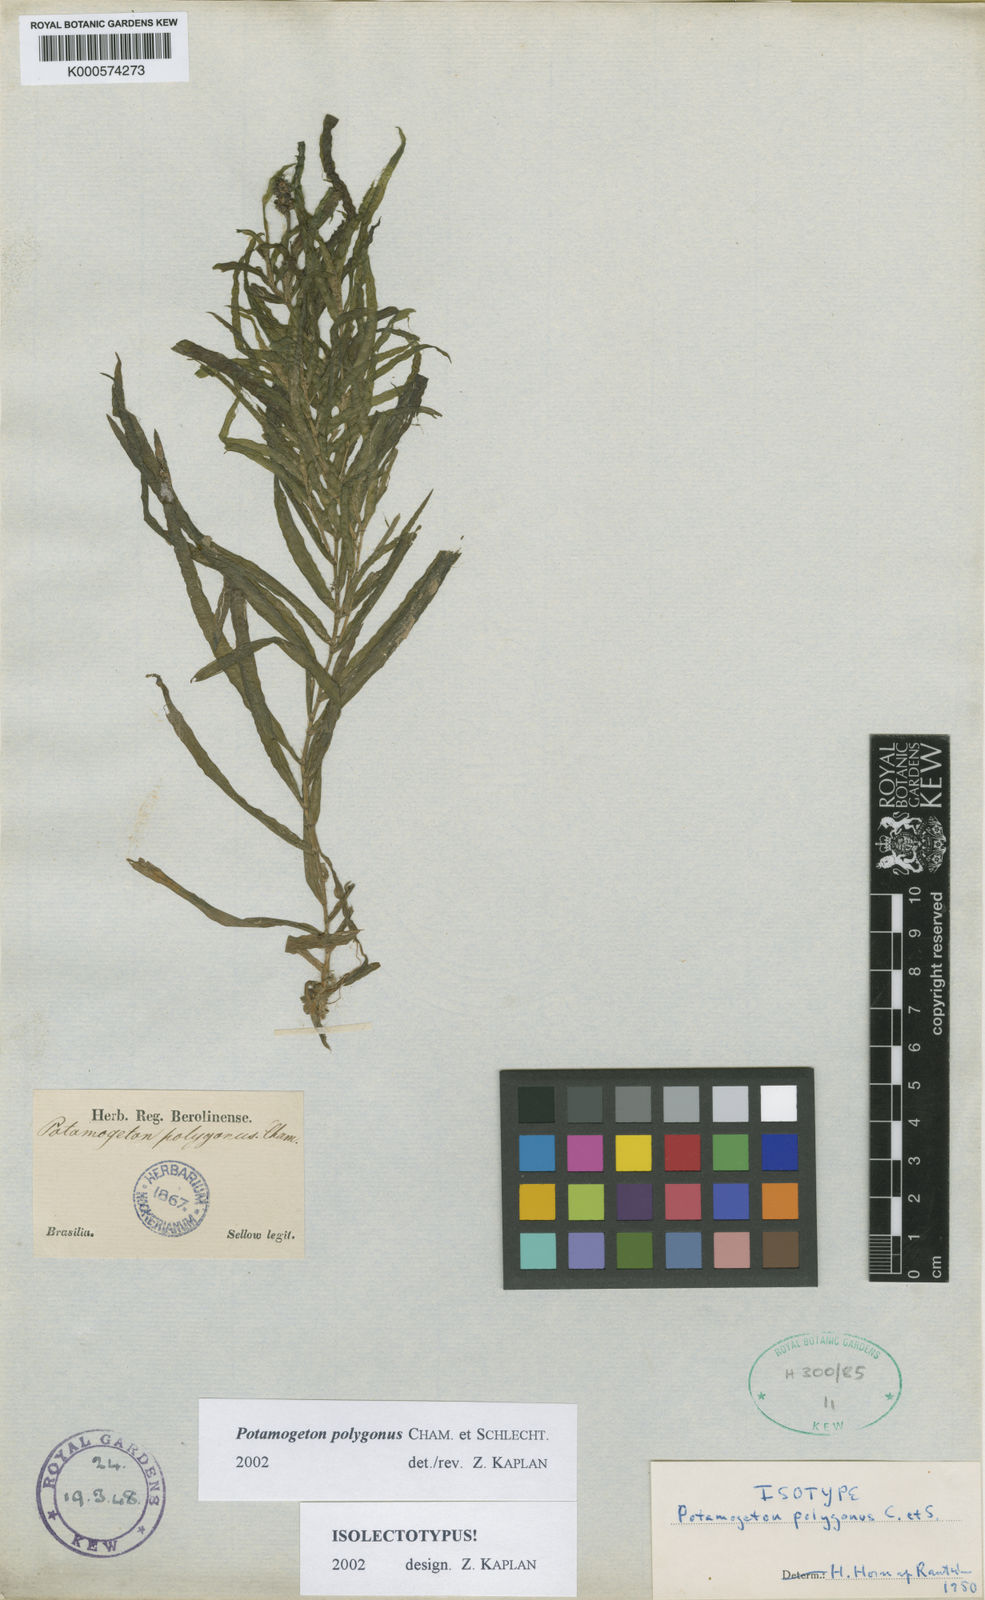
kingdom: Plantae
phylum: Tracheophyta
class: Liliopsida
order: Alismatales
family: Potamogetonaceae
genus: Potamogeton
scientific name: Potamogeton polygonus
